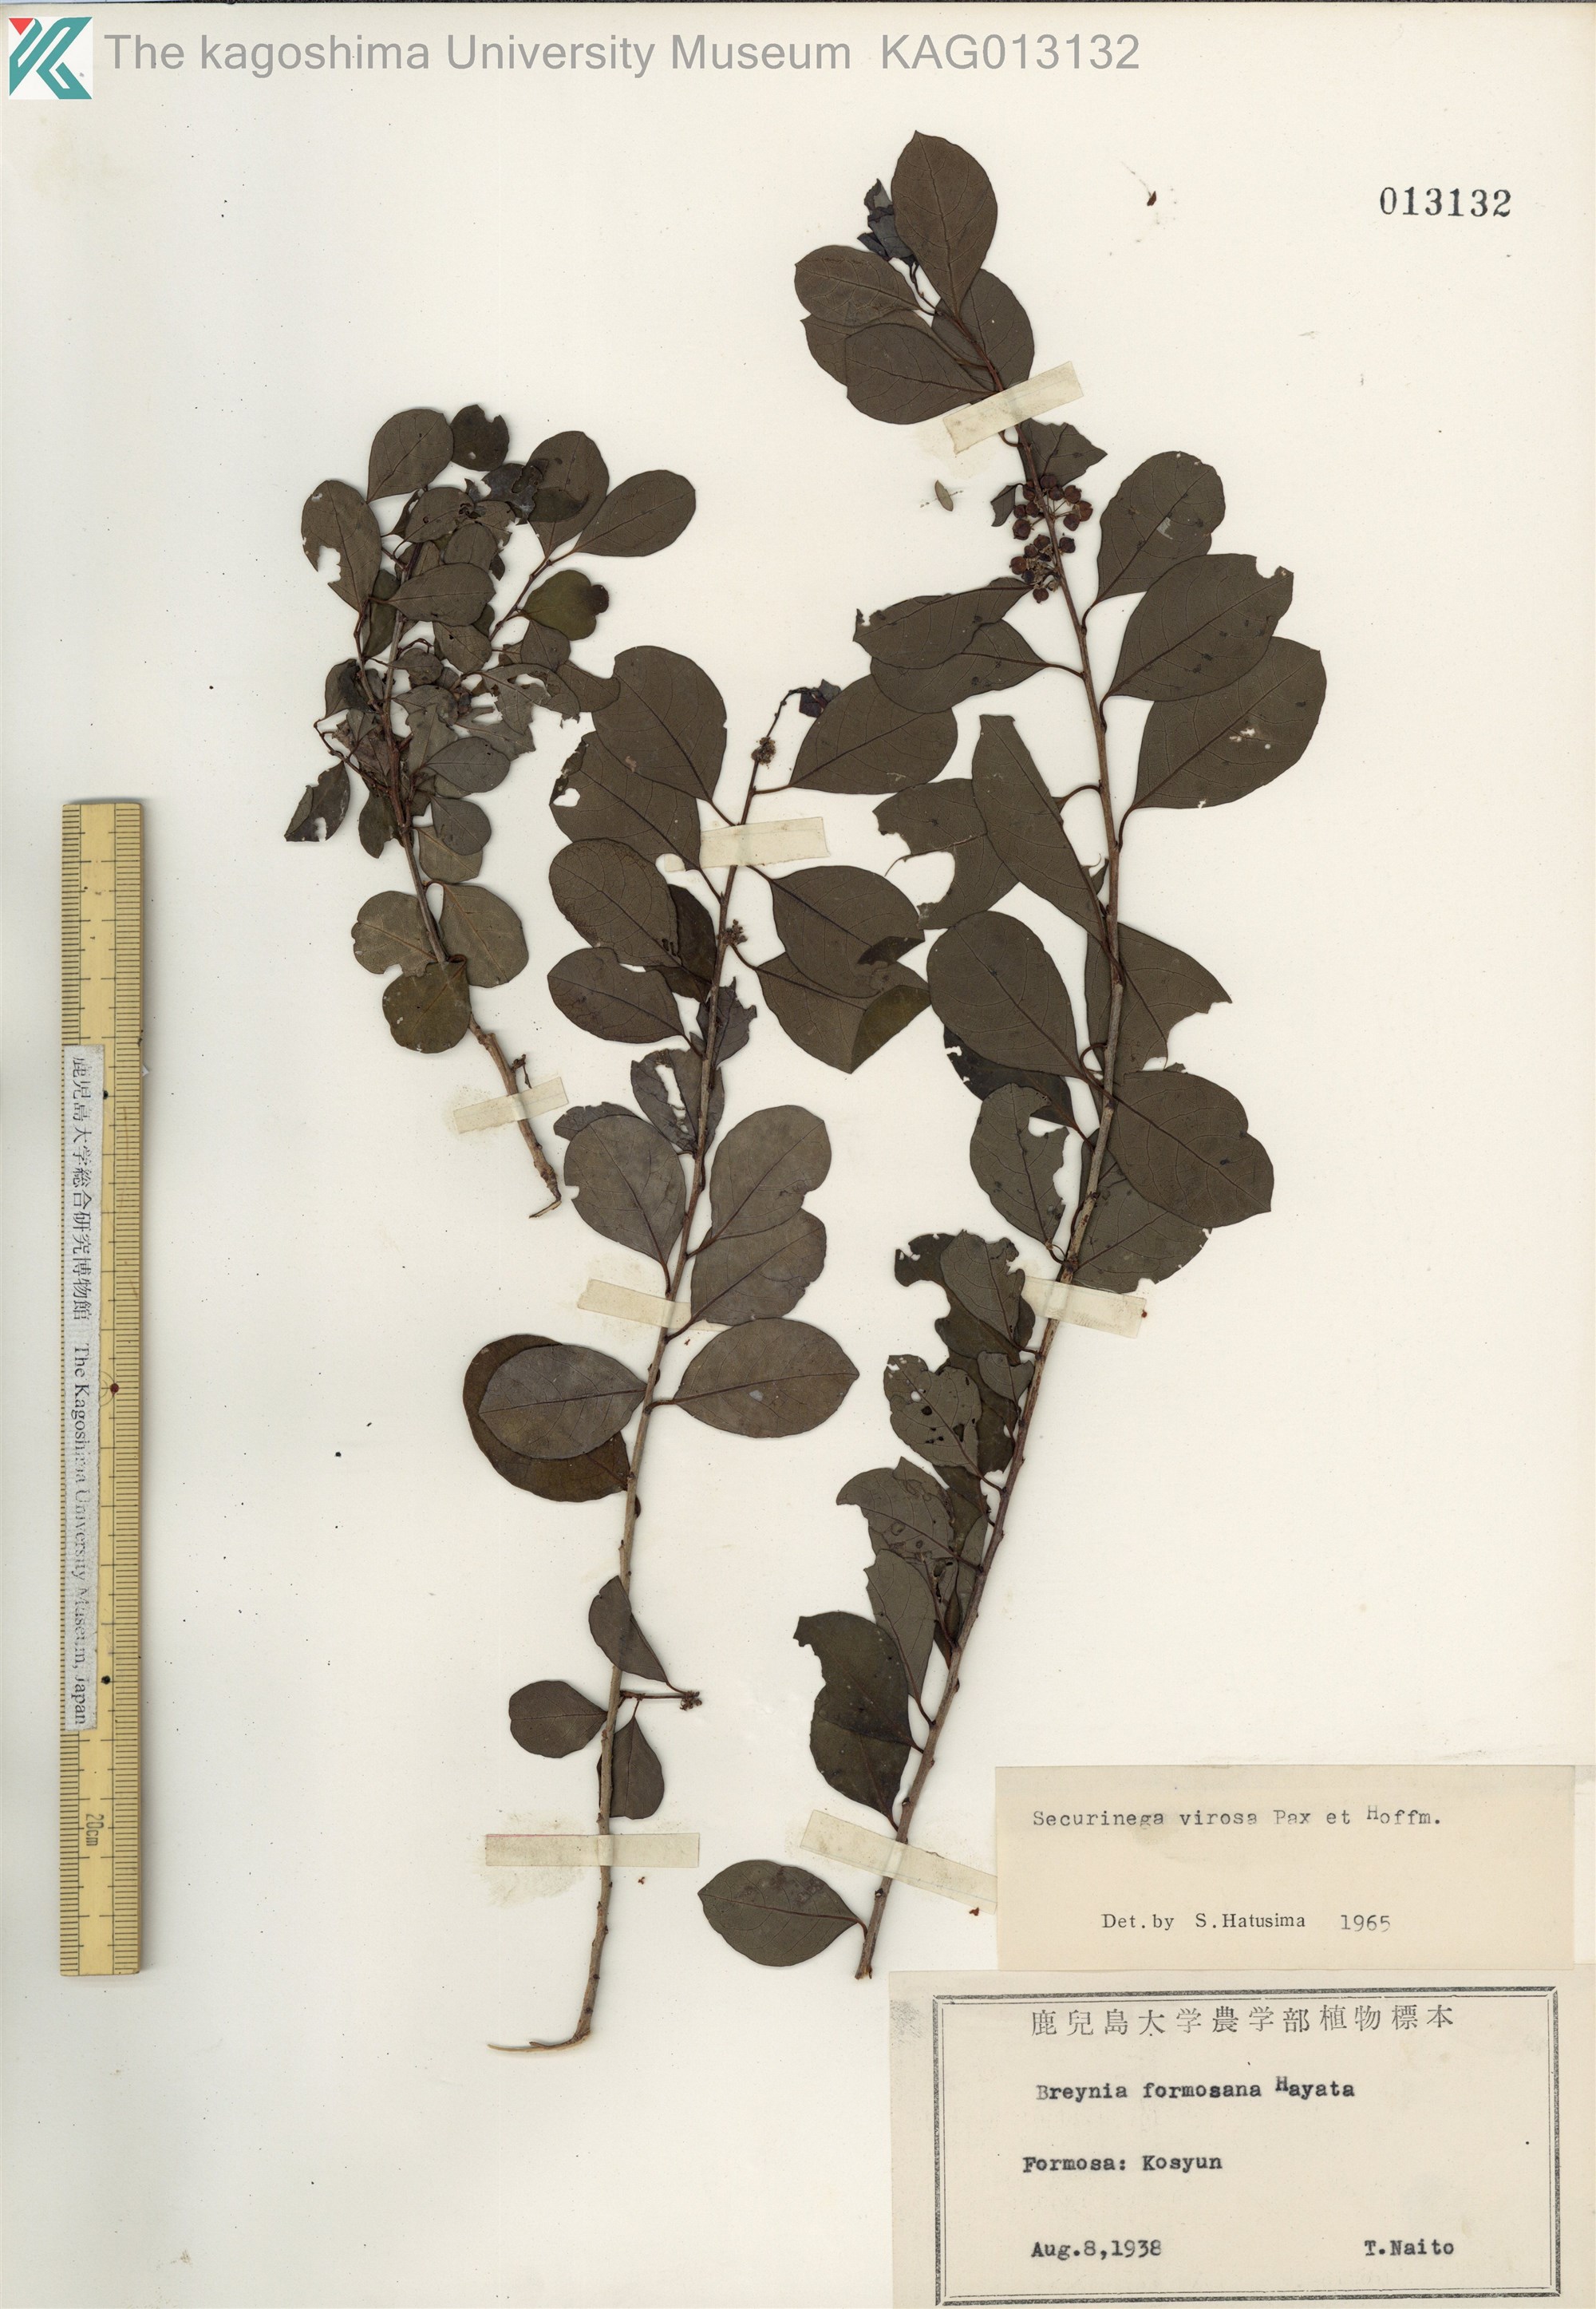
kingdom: Plantae
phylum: Tracheophyta
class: Magnoliopsida
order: Malpighiales
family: Phyllanthaceae
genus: Flueggea
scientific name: Flueggea virosa
